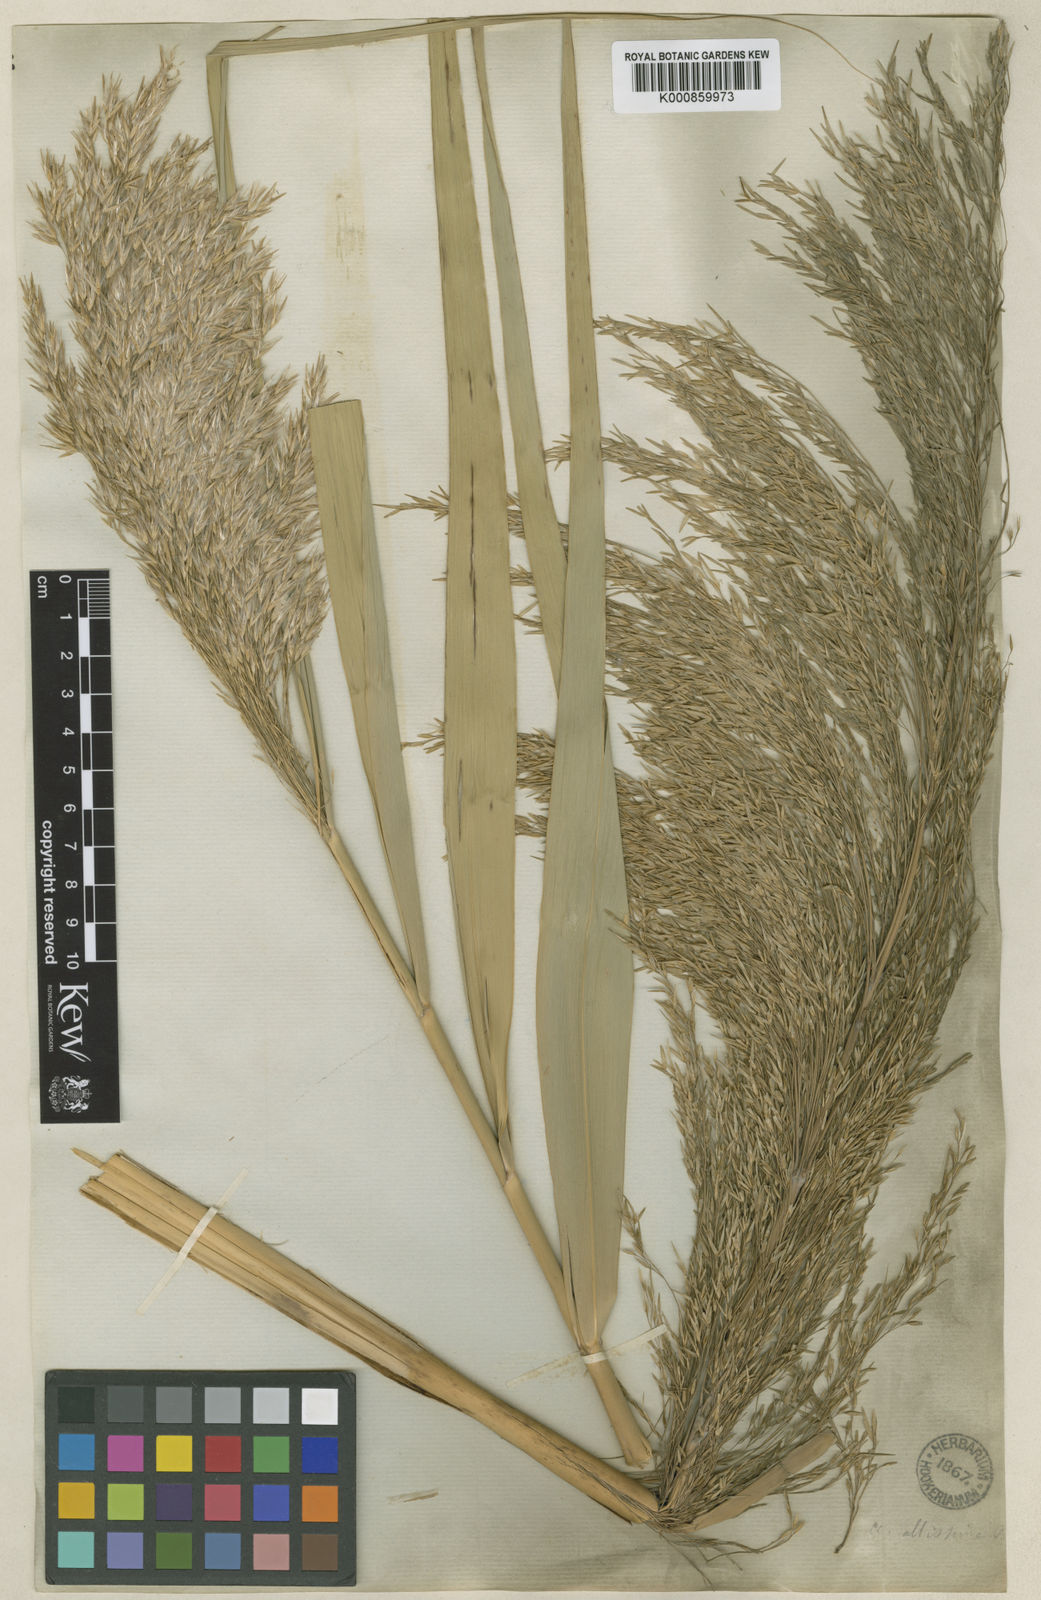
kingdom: Plantae
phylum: Tracheophyta
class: Liliopsida
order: Poales
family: Poaceae
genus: Phragmites
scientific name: Phragmites australis
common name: Common reed
